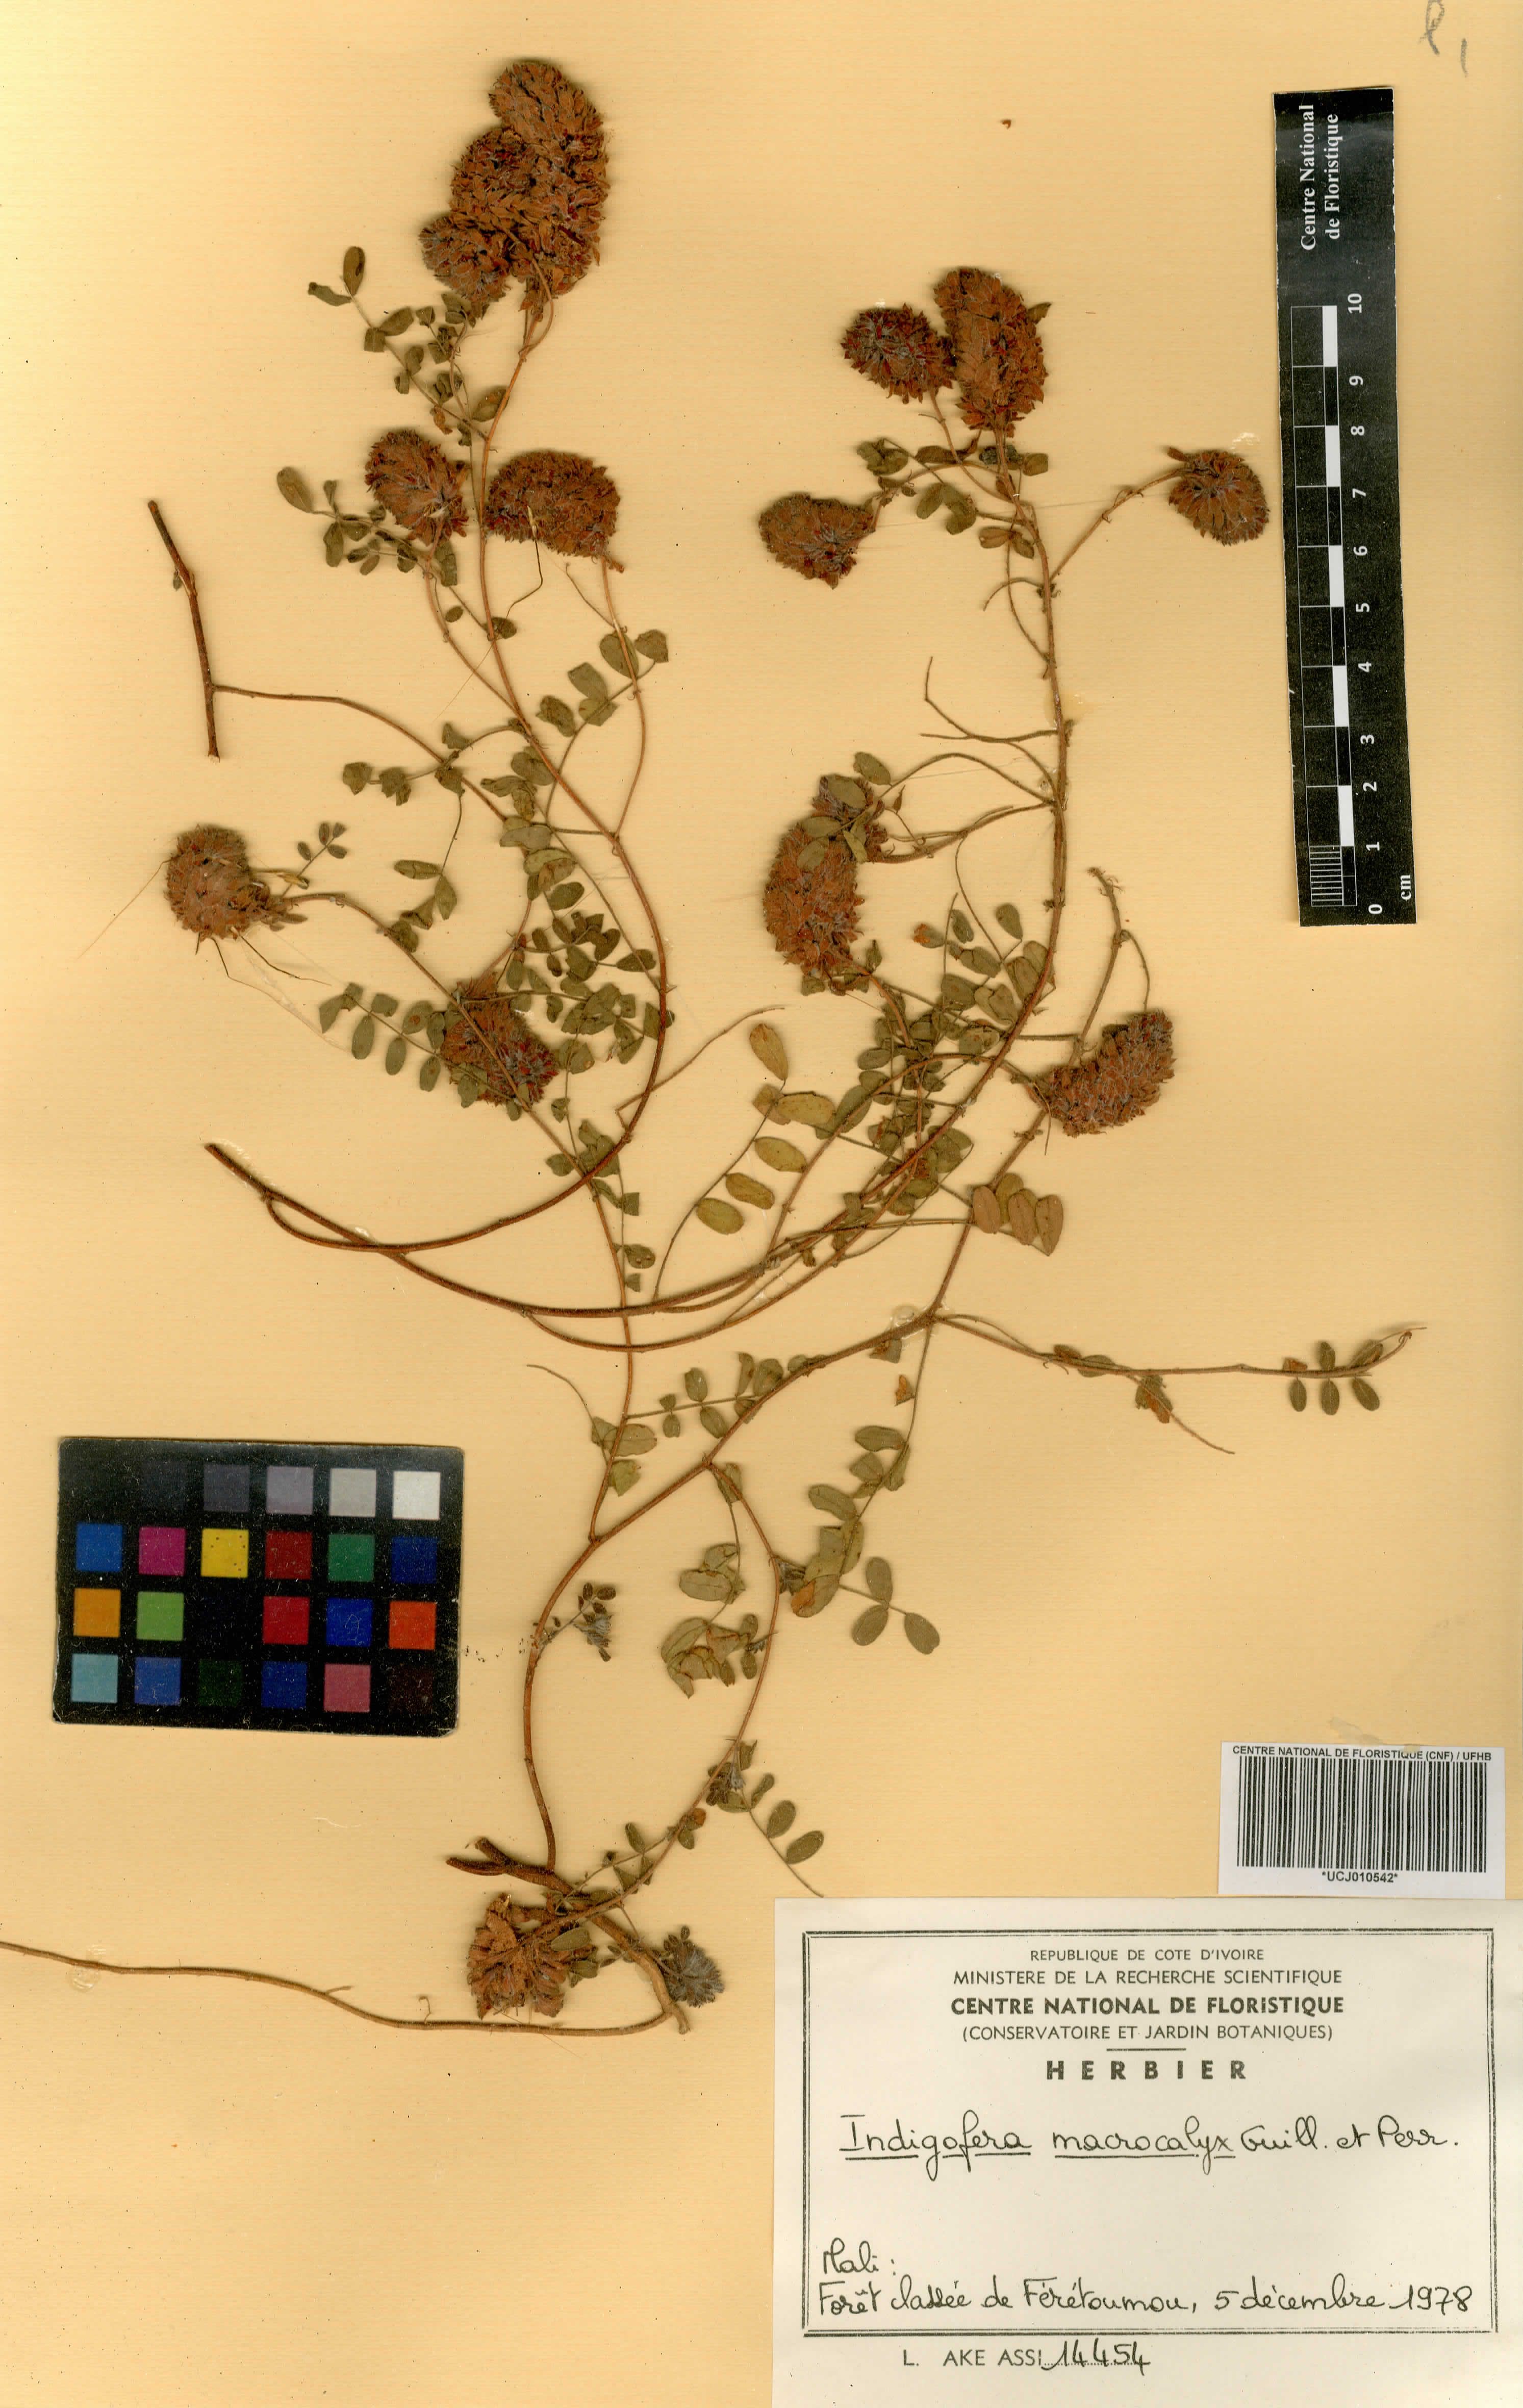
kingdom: Plantae
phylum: Tracheophyta
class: Magnoliopsida
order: Fabales
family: Fabaceae
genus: Indigofera
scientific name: Indigofera macrocalyx
